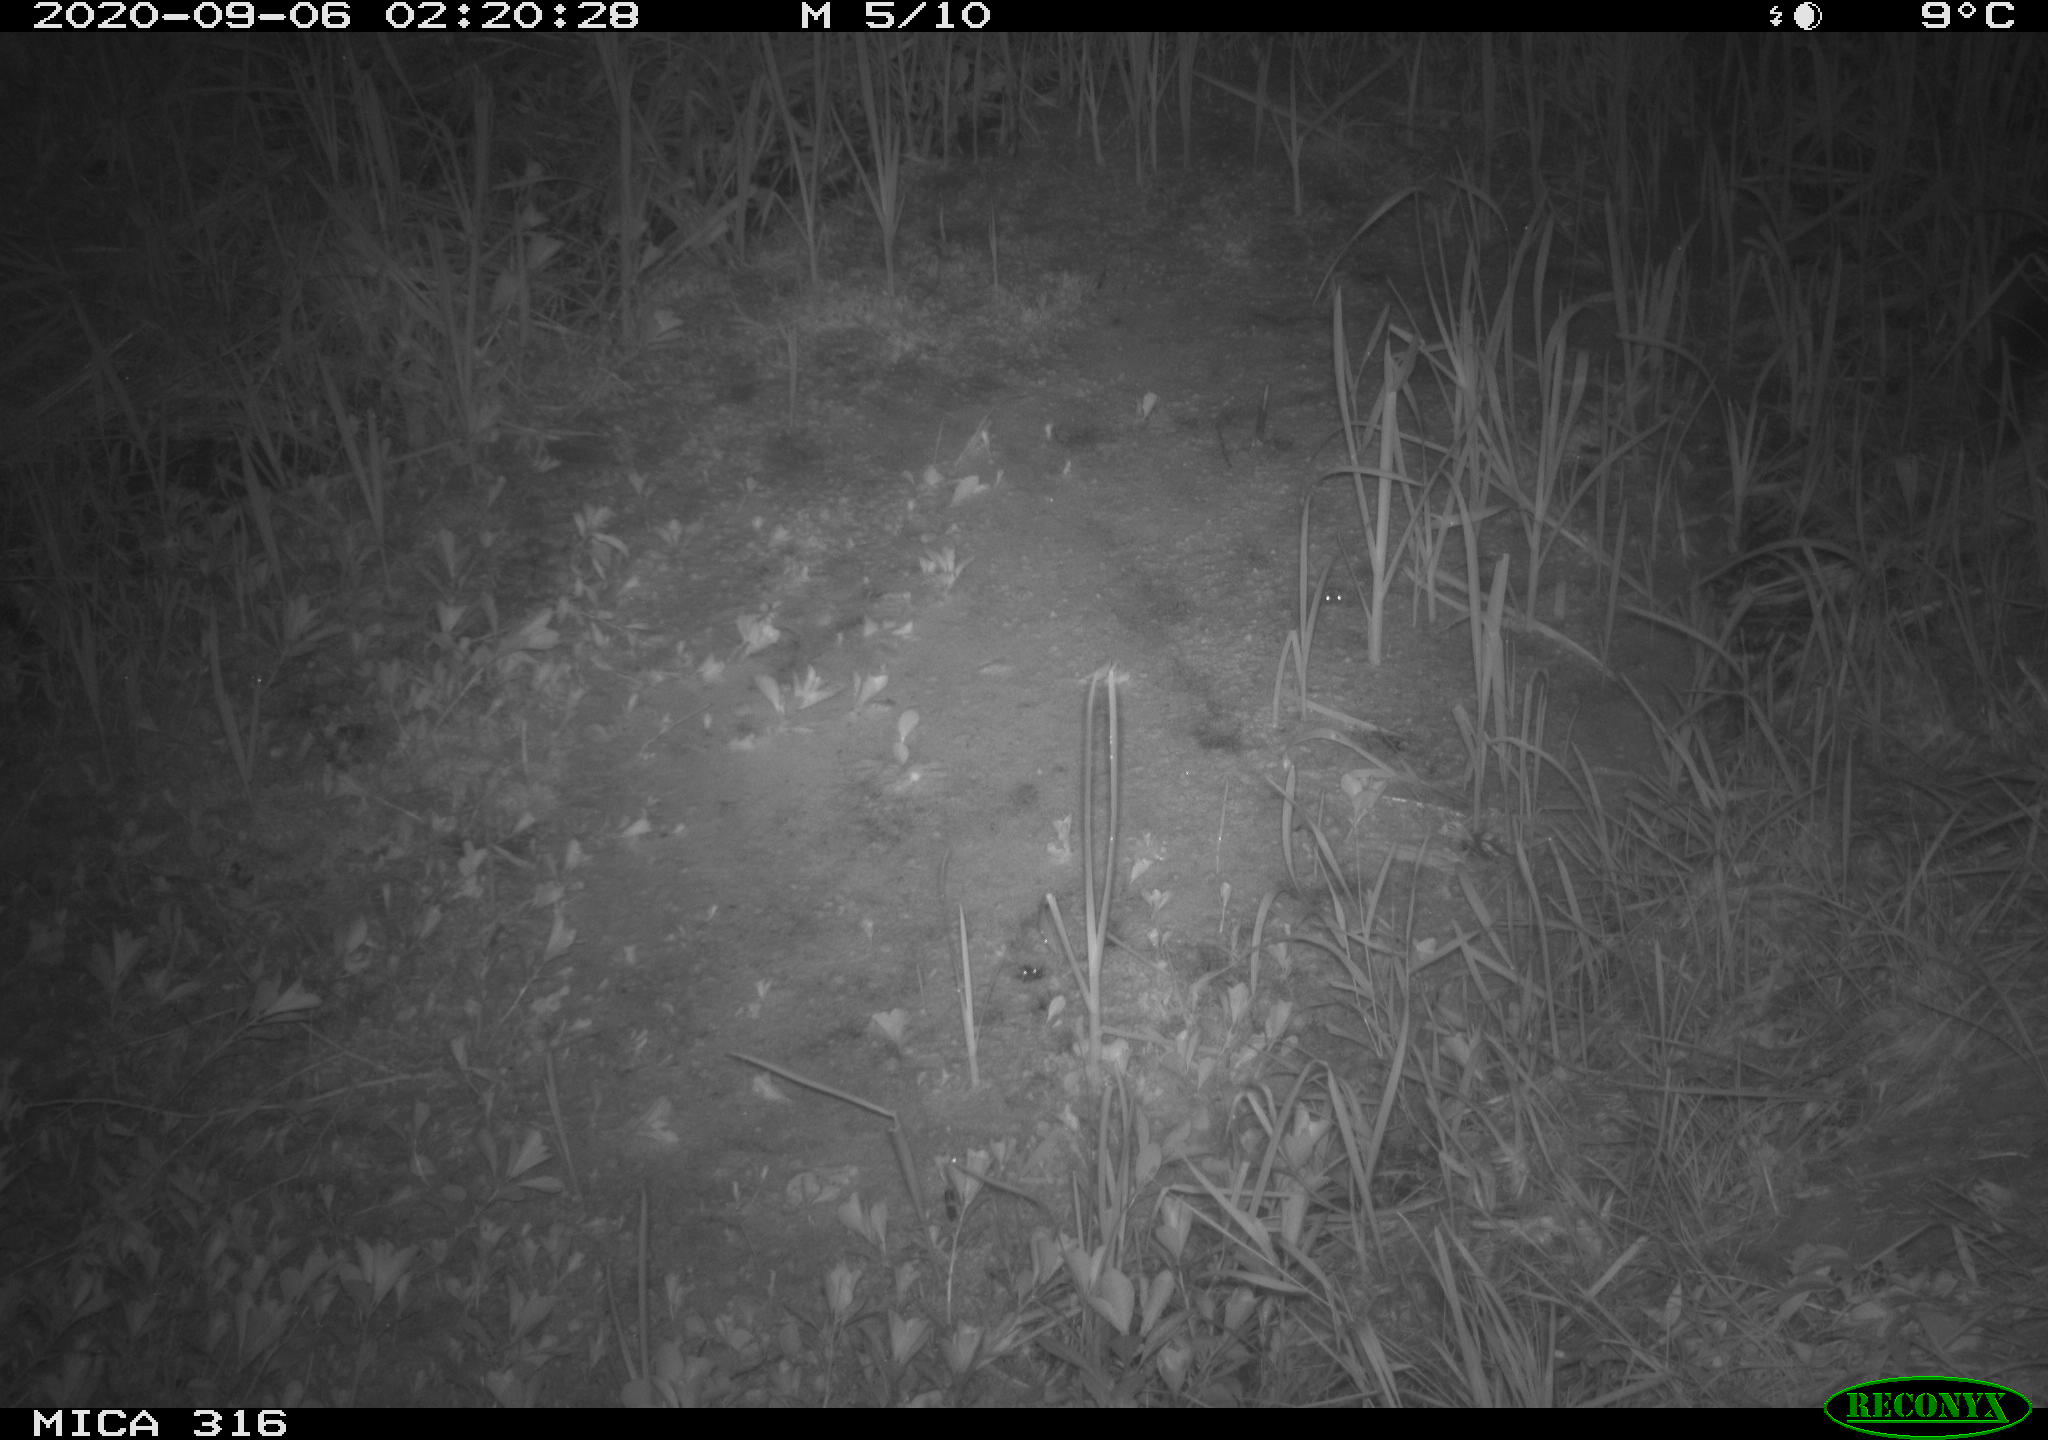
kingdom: Animalia
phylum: Chordata
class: Mammalia
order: Rodentia
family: Muridae
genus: Rattus
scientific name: Rattus norvegicus
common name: Brown rat
